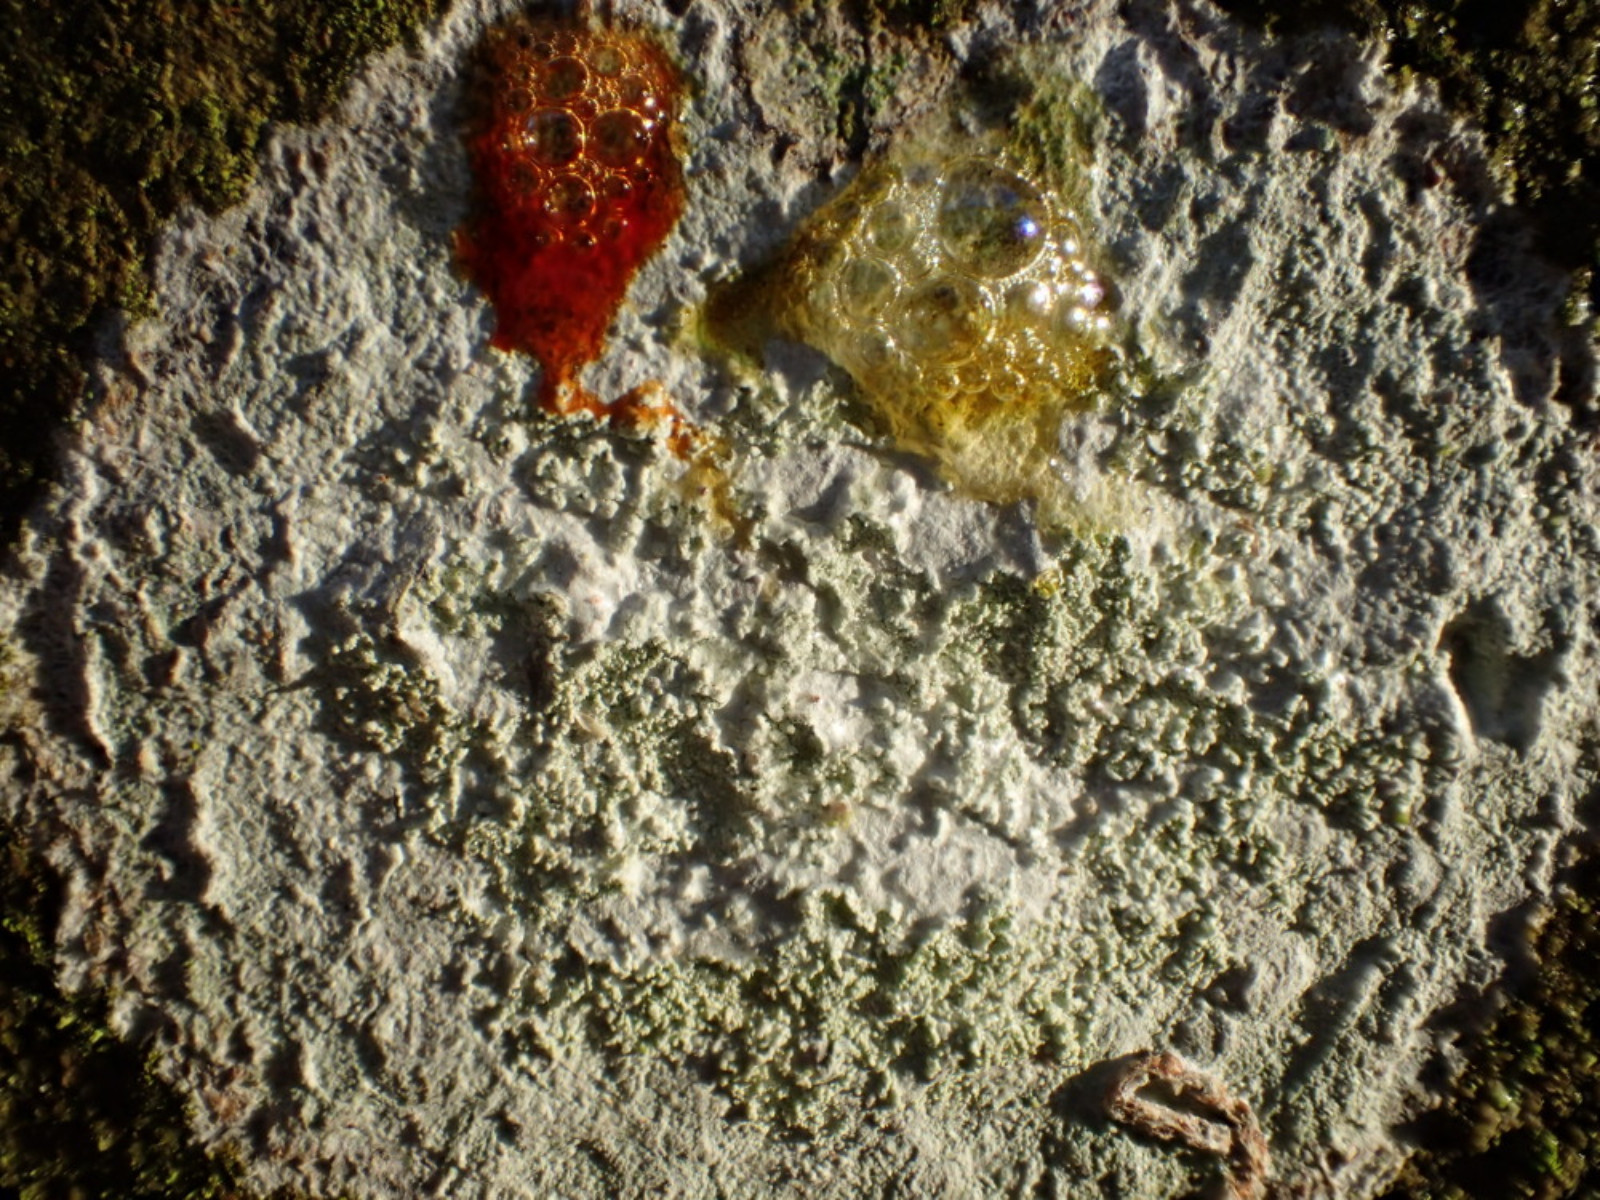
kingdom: Fungi
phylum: Ascomycota
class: Lecanoromycetes
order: Ostropales
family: Phlyctidaceae
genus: Phlyctis
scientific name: Phlyctis argena
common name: almindelig sølvlav
